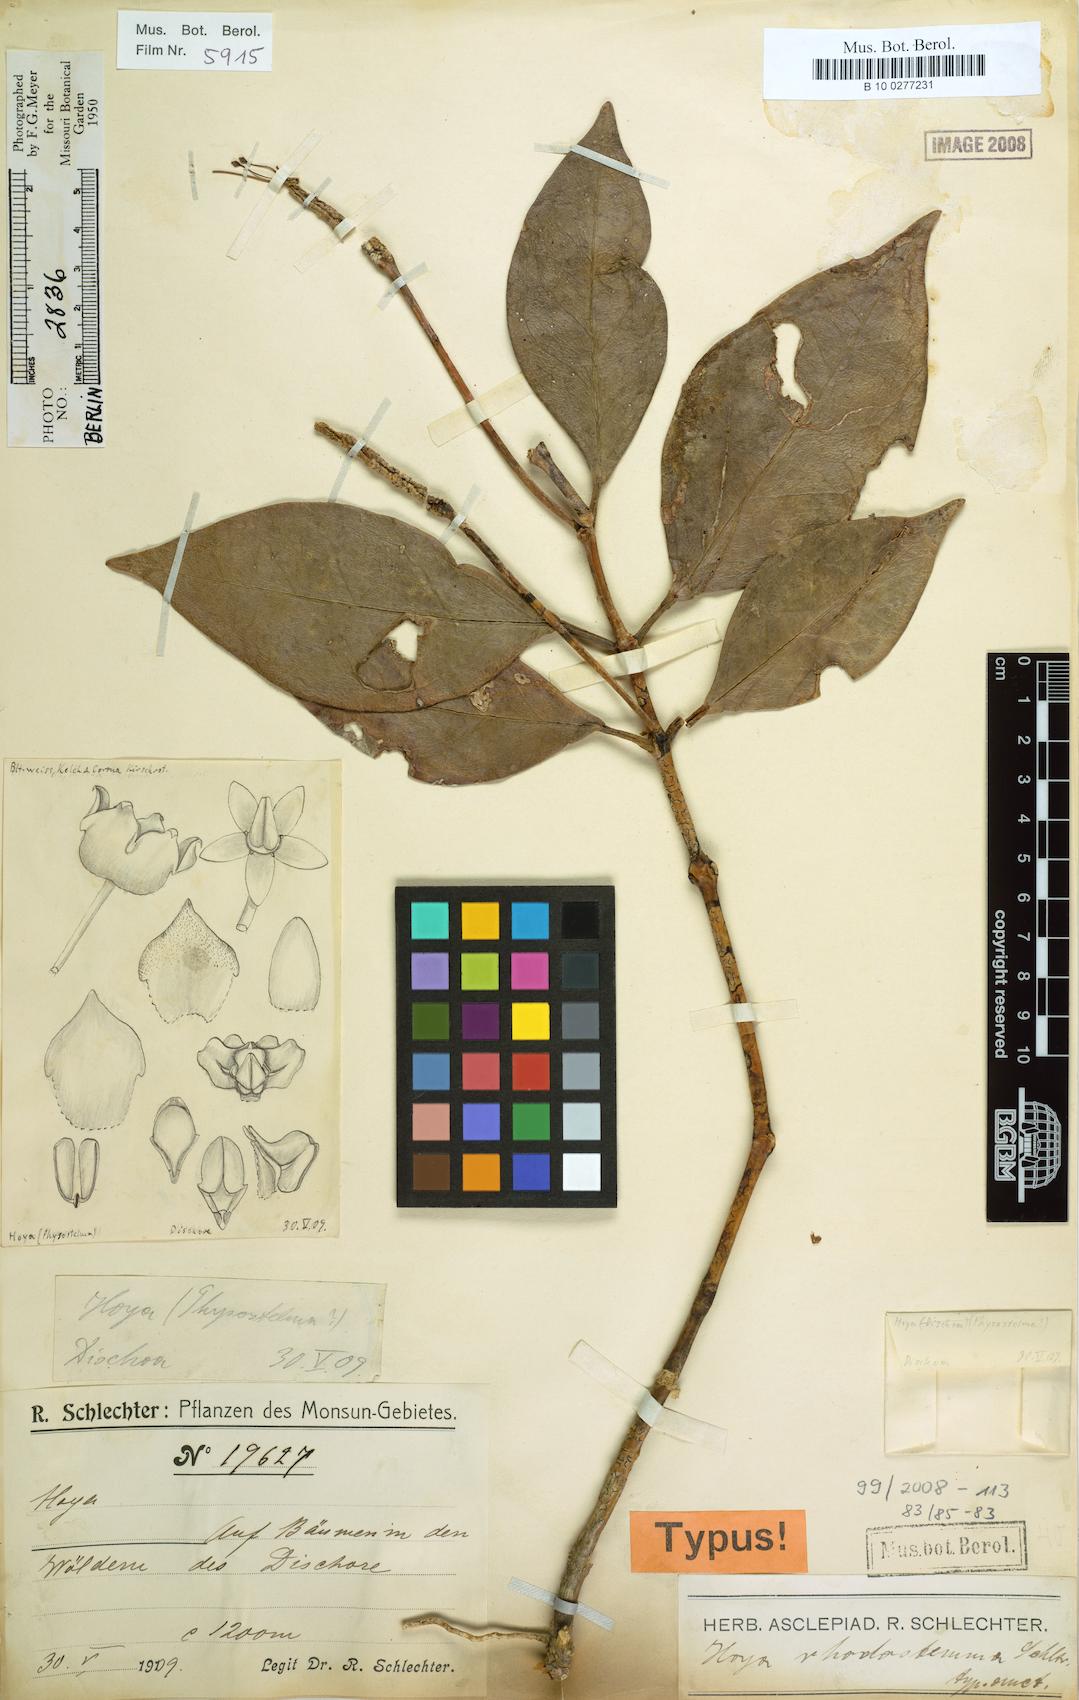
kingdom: Plantae
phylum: Tracheophyta
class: Magnoliopsida
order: Gentianales
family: Apocynaceae
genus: Hoya
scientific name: Hoya rhodostemma
